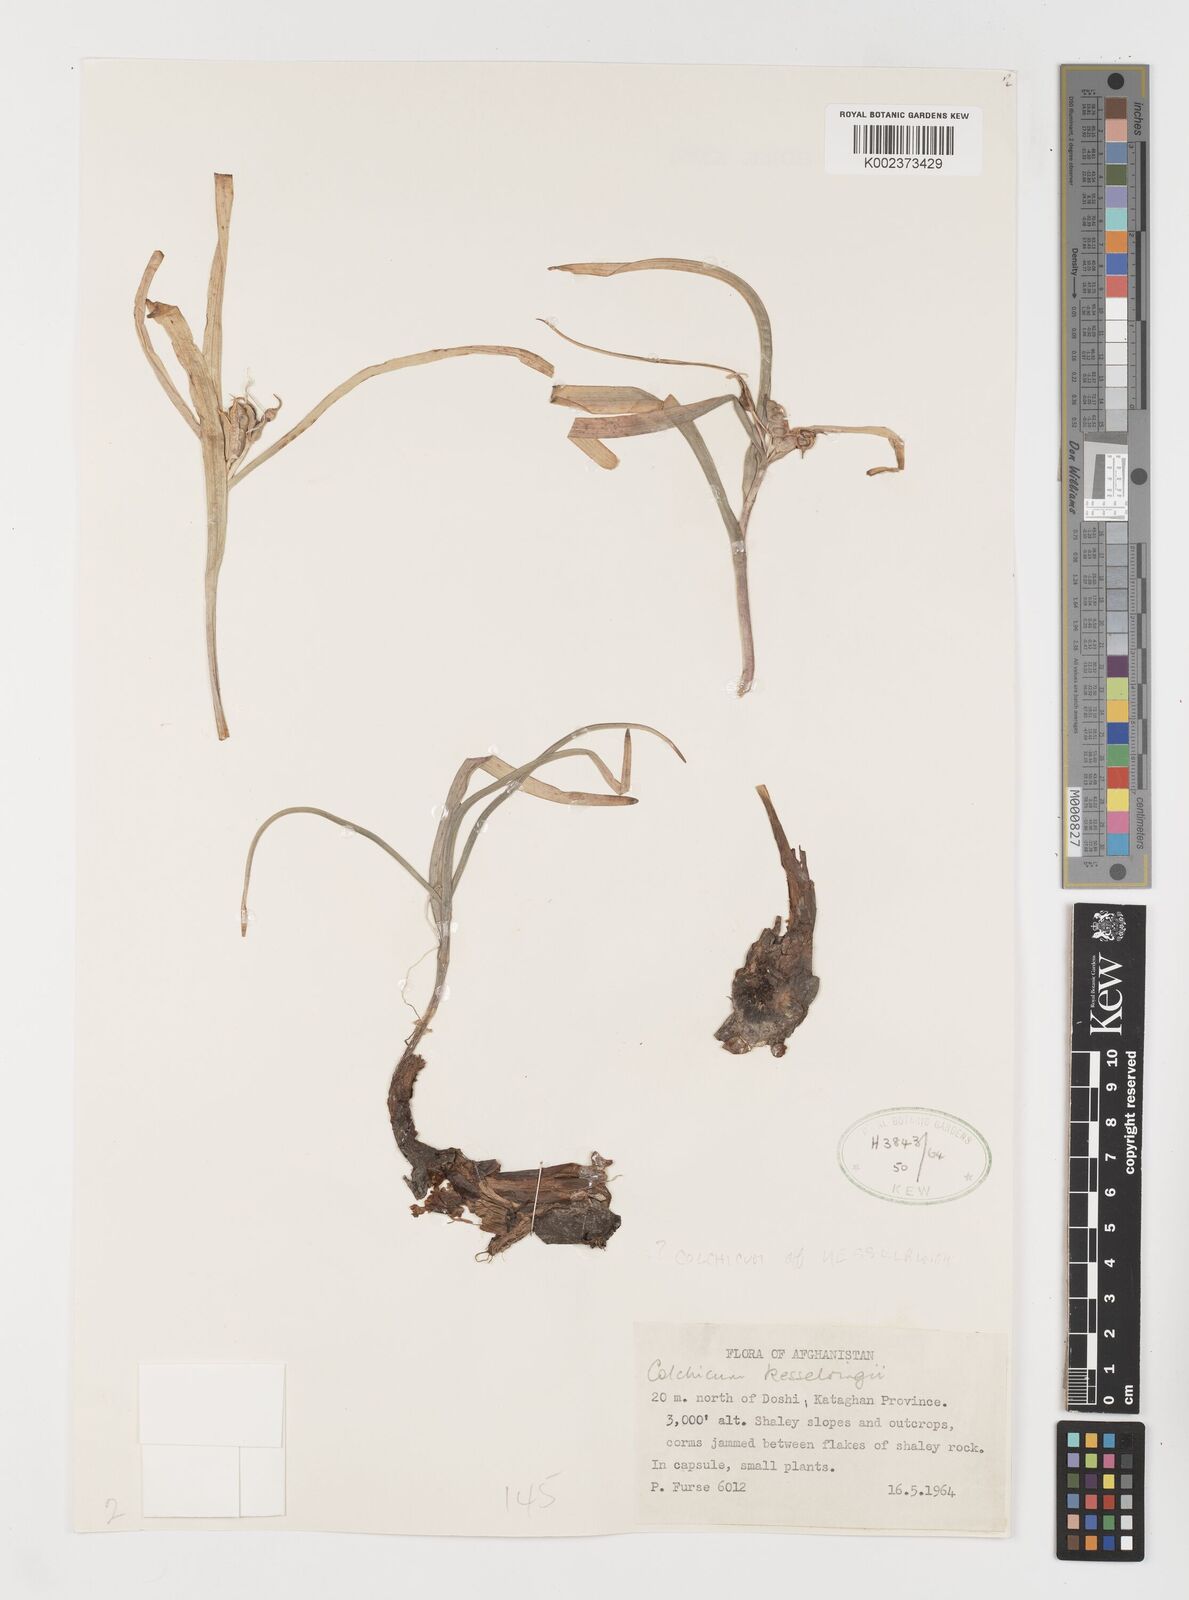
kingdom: Plantae
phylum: Tracheophyta
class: Liliopsida
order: Liliales
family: Colchicaceae
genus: Colchicum
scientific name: Colchicum kesselringii
